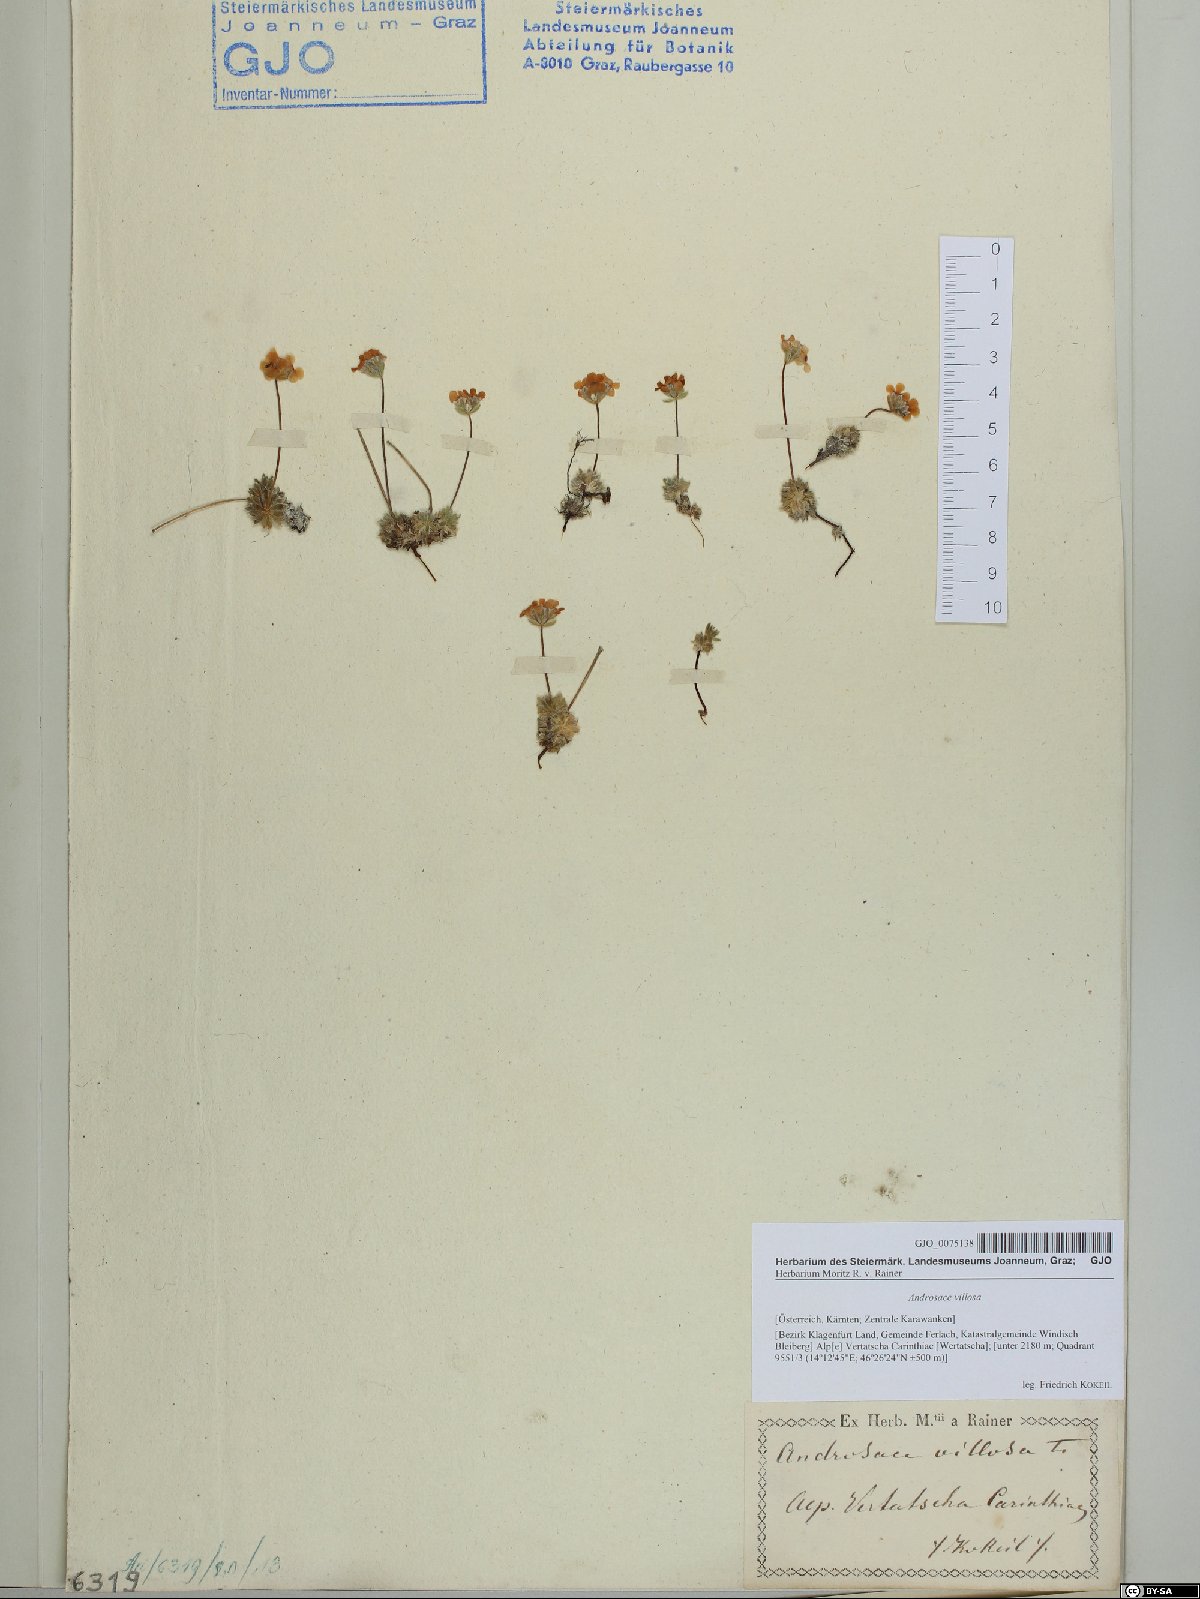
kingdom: Plantae
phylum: Tracheophyta
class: Magnoliopsida
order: Ericales
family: Primulaceae
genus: Androsace
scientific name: Androsace villosa
